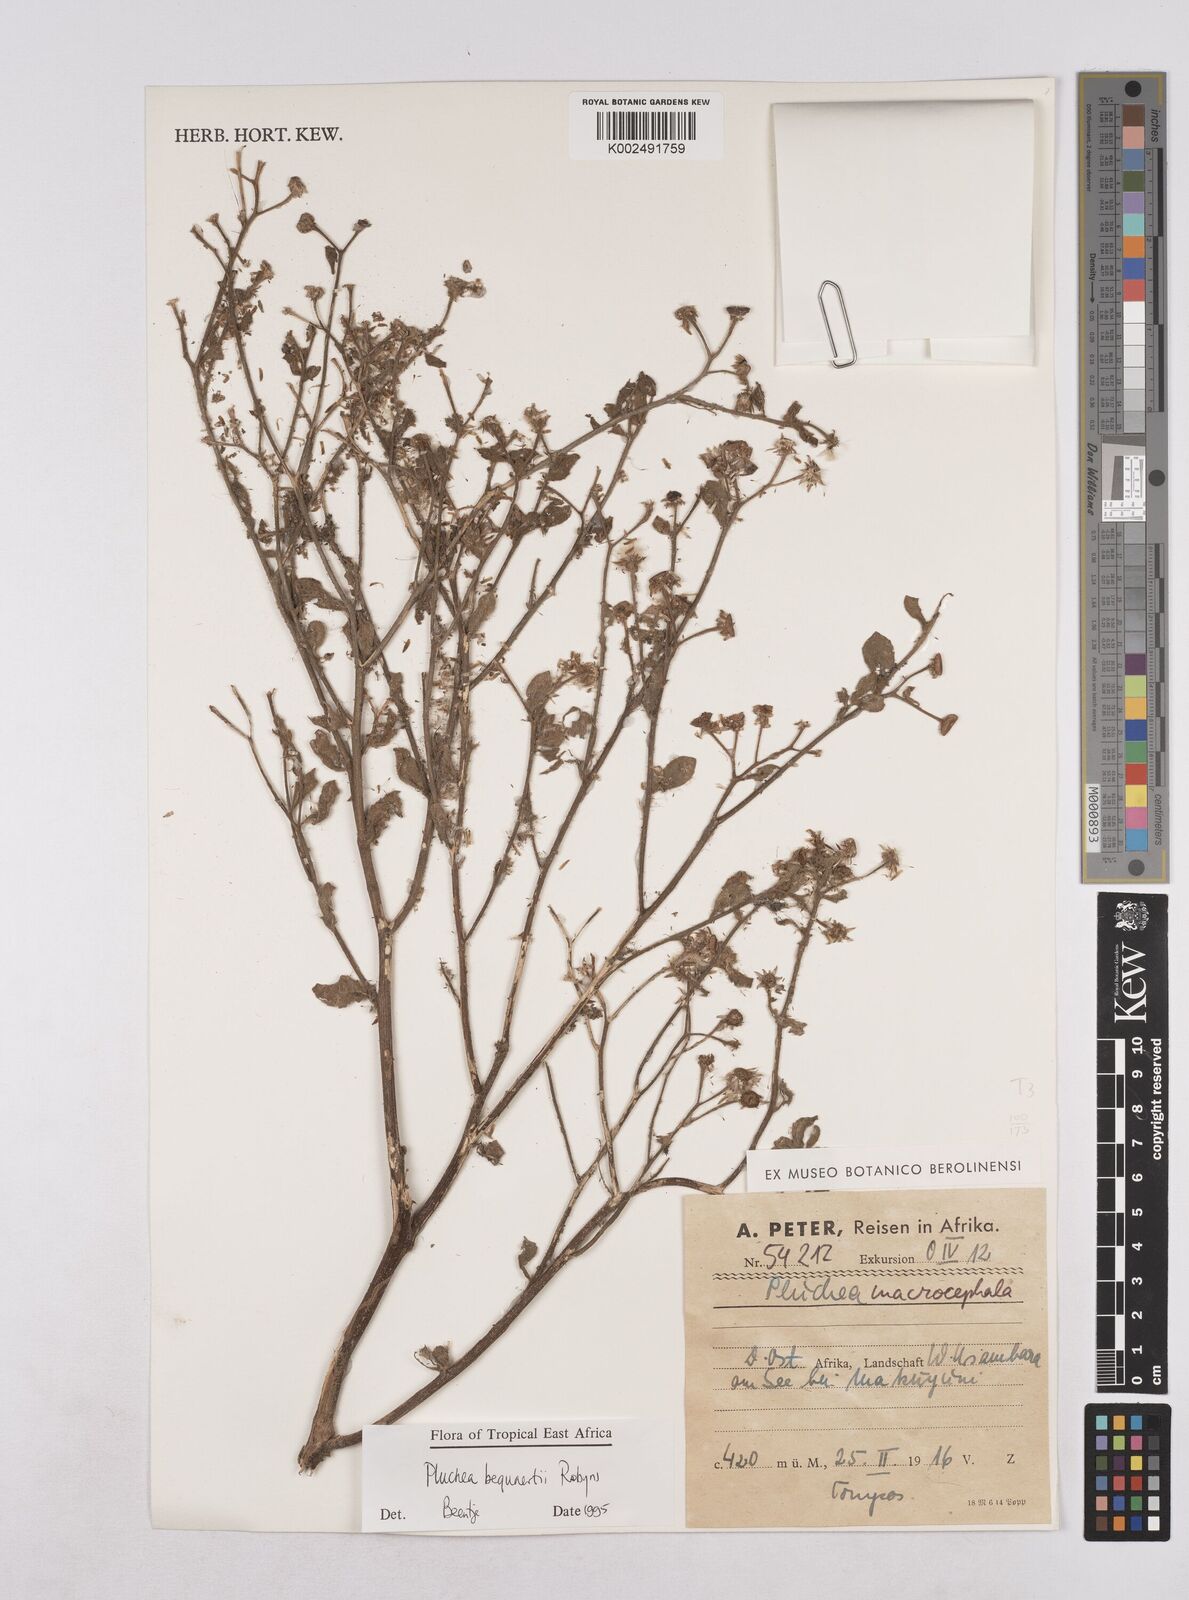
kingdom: Plantae
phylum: Tracheophyta
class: Magnoliopsida
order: Asterales
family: Asteraceae
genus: Pluchea
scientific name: Pluchea sordida
